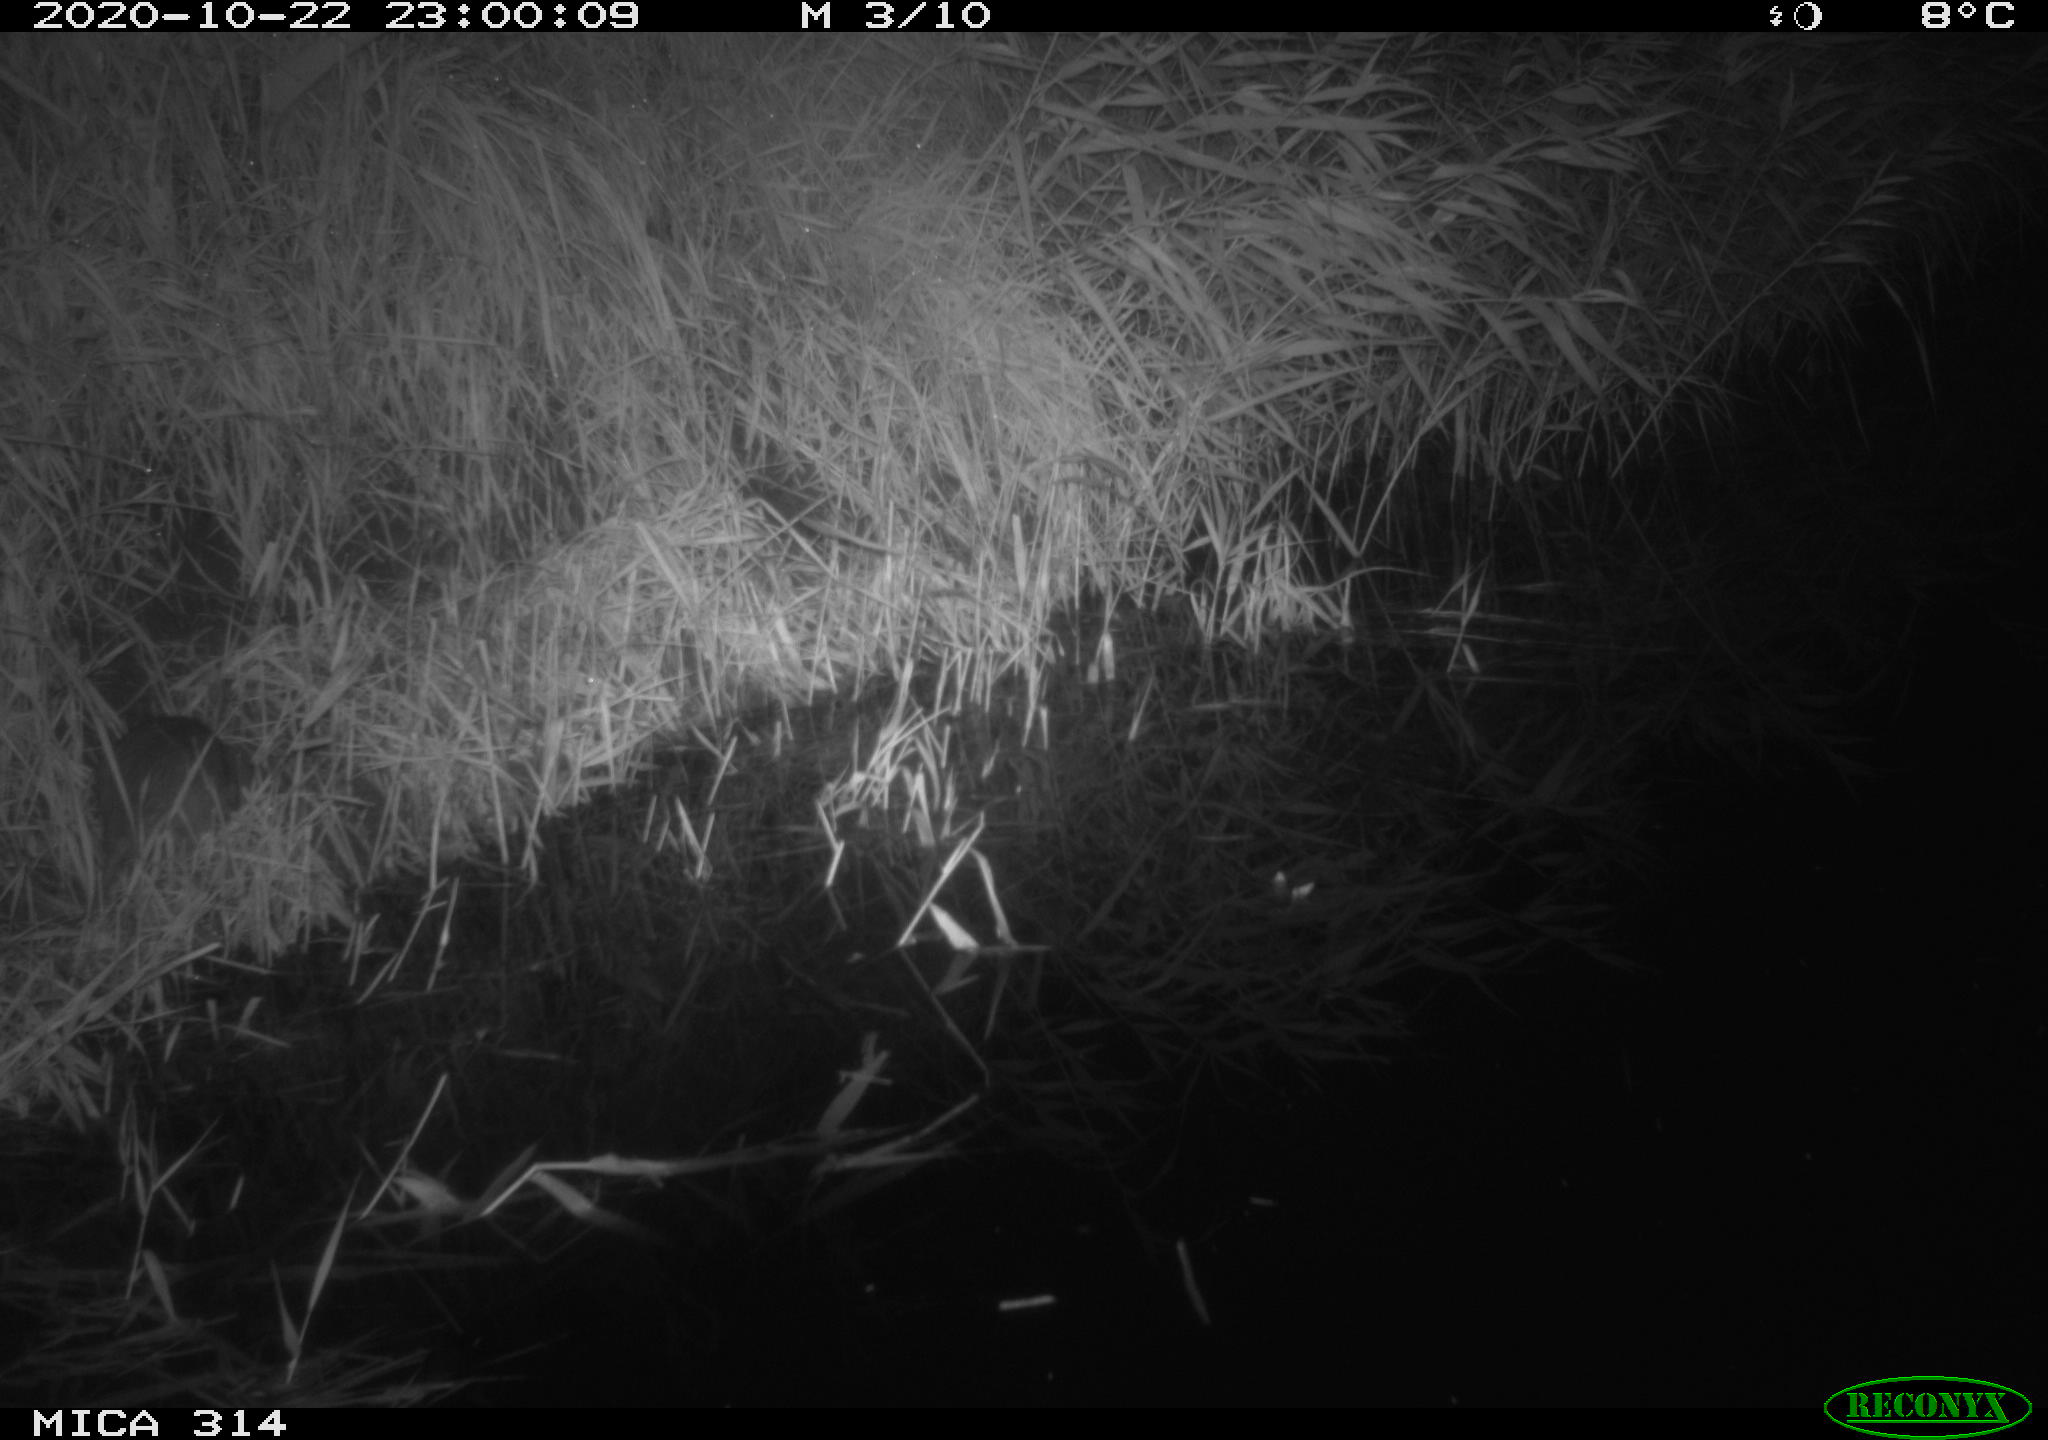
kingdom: Animalia
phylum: Chordata
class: Mammalia
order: Rodentia
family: Muridae
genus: Rattus
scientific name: Rattus norvegicus
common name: Brown rat
